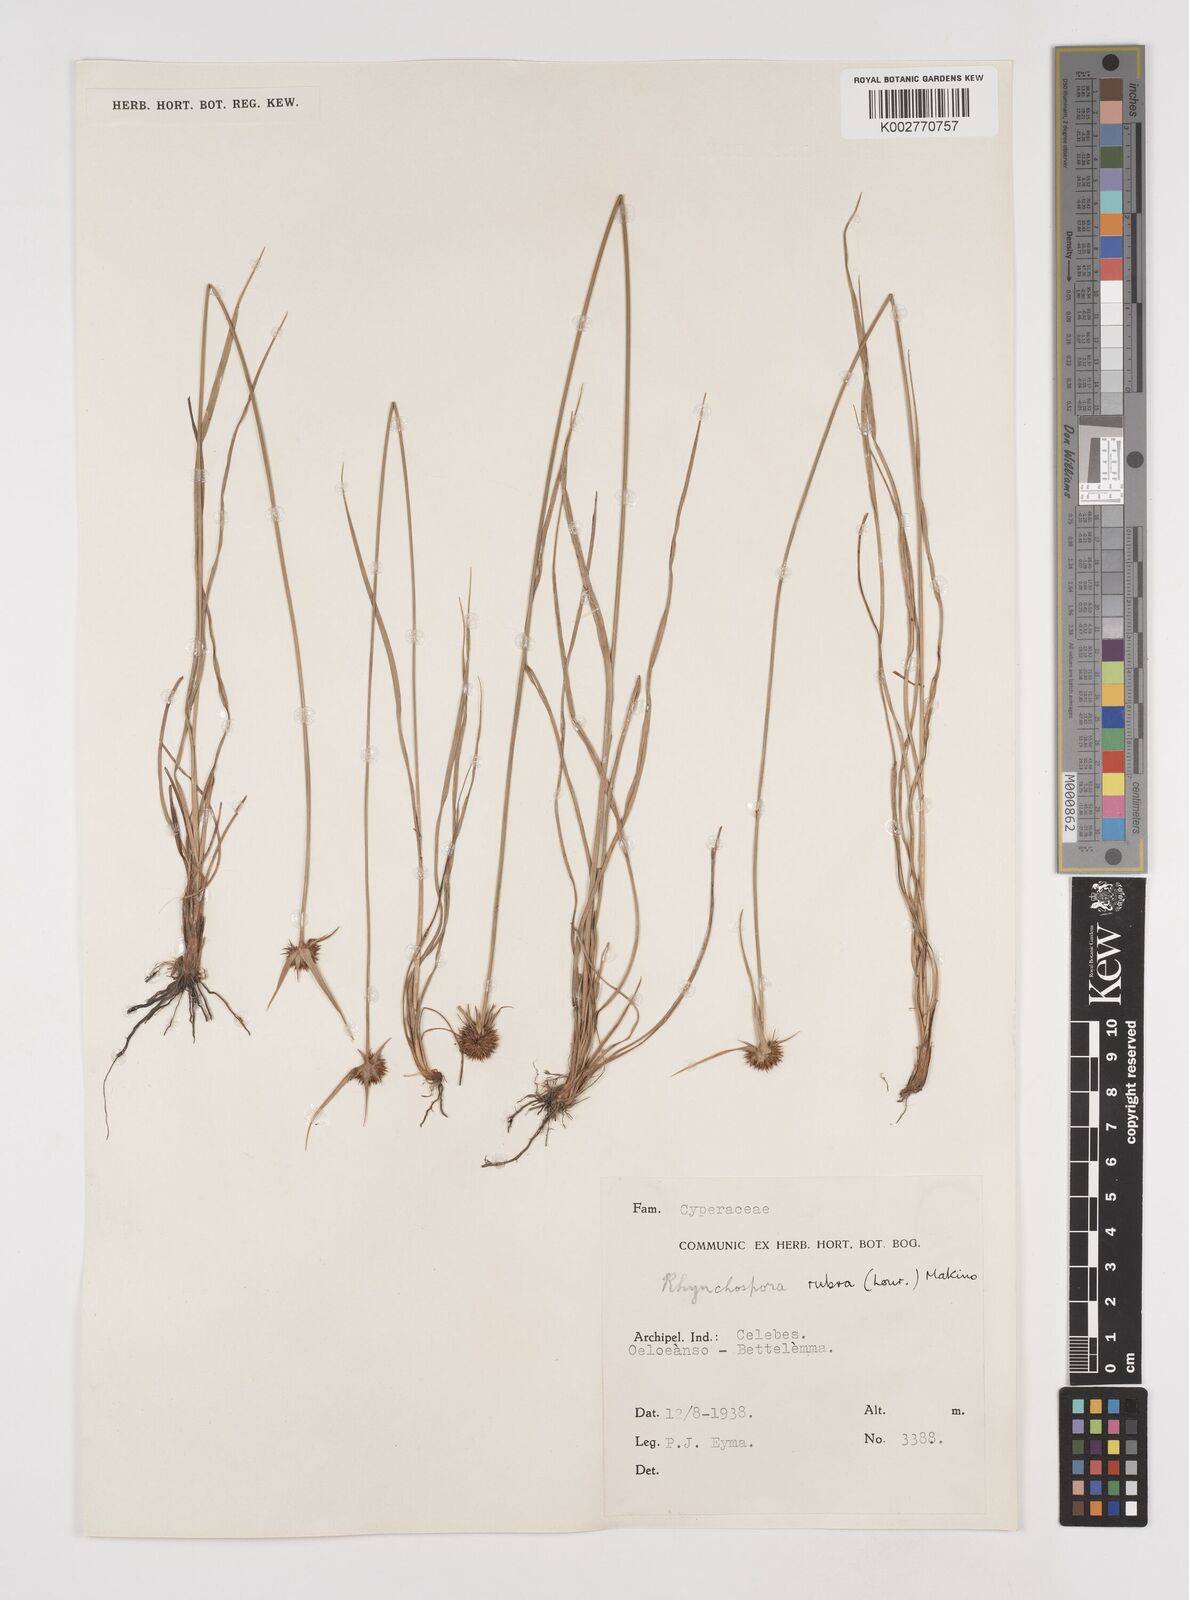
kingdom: Plantae
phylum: Tracheophyta
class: Liliopsida
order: Poales
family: Cyperaceae
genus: Rhynchospora
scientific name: Rhynchospora rubra
